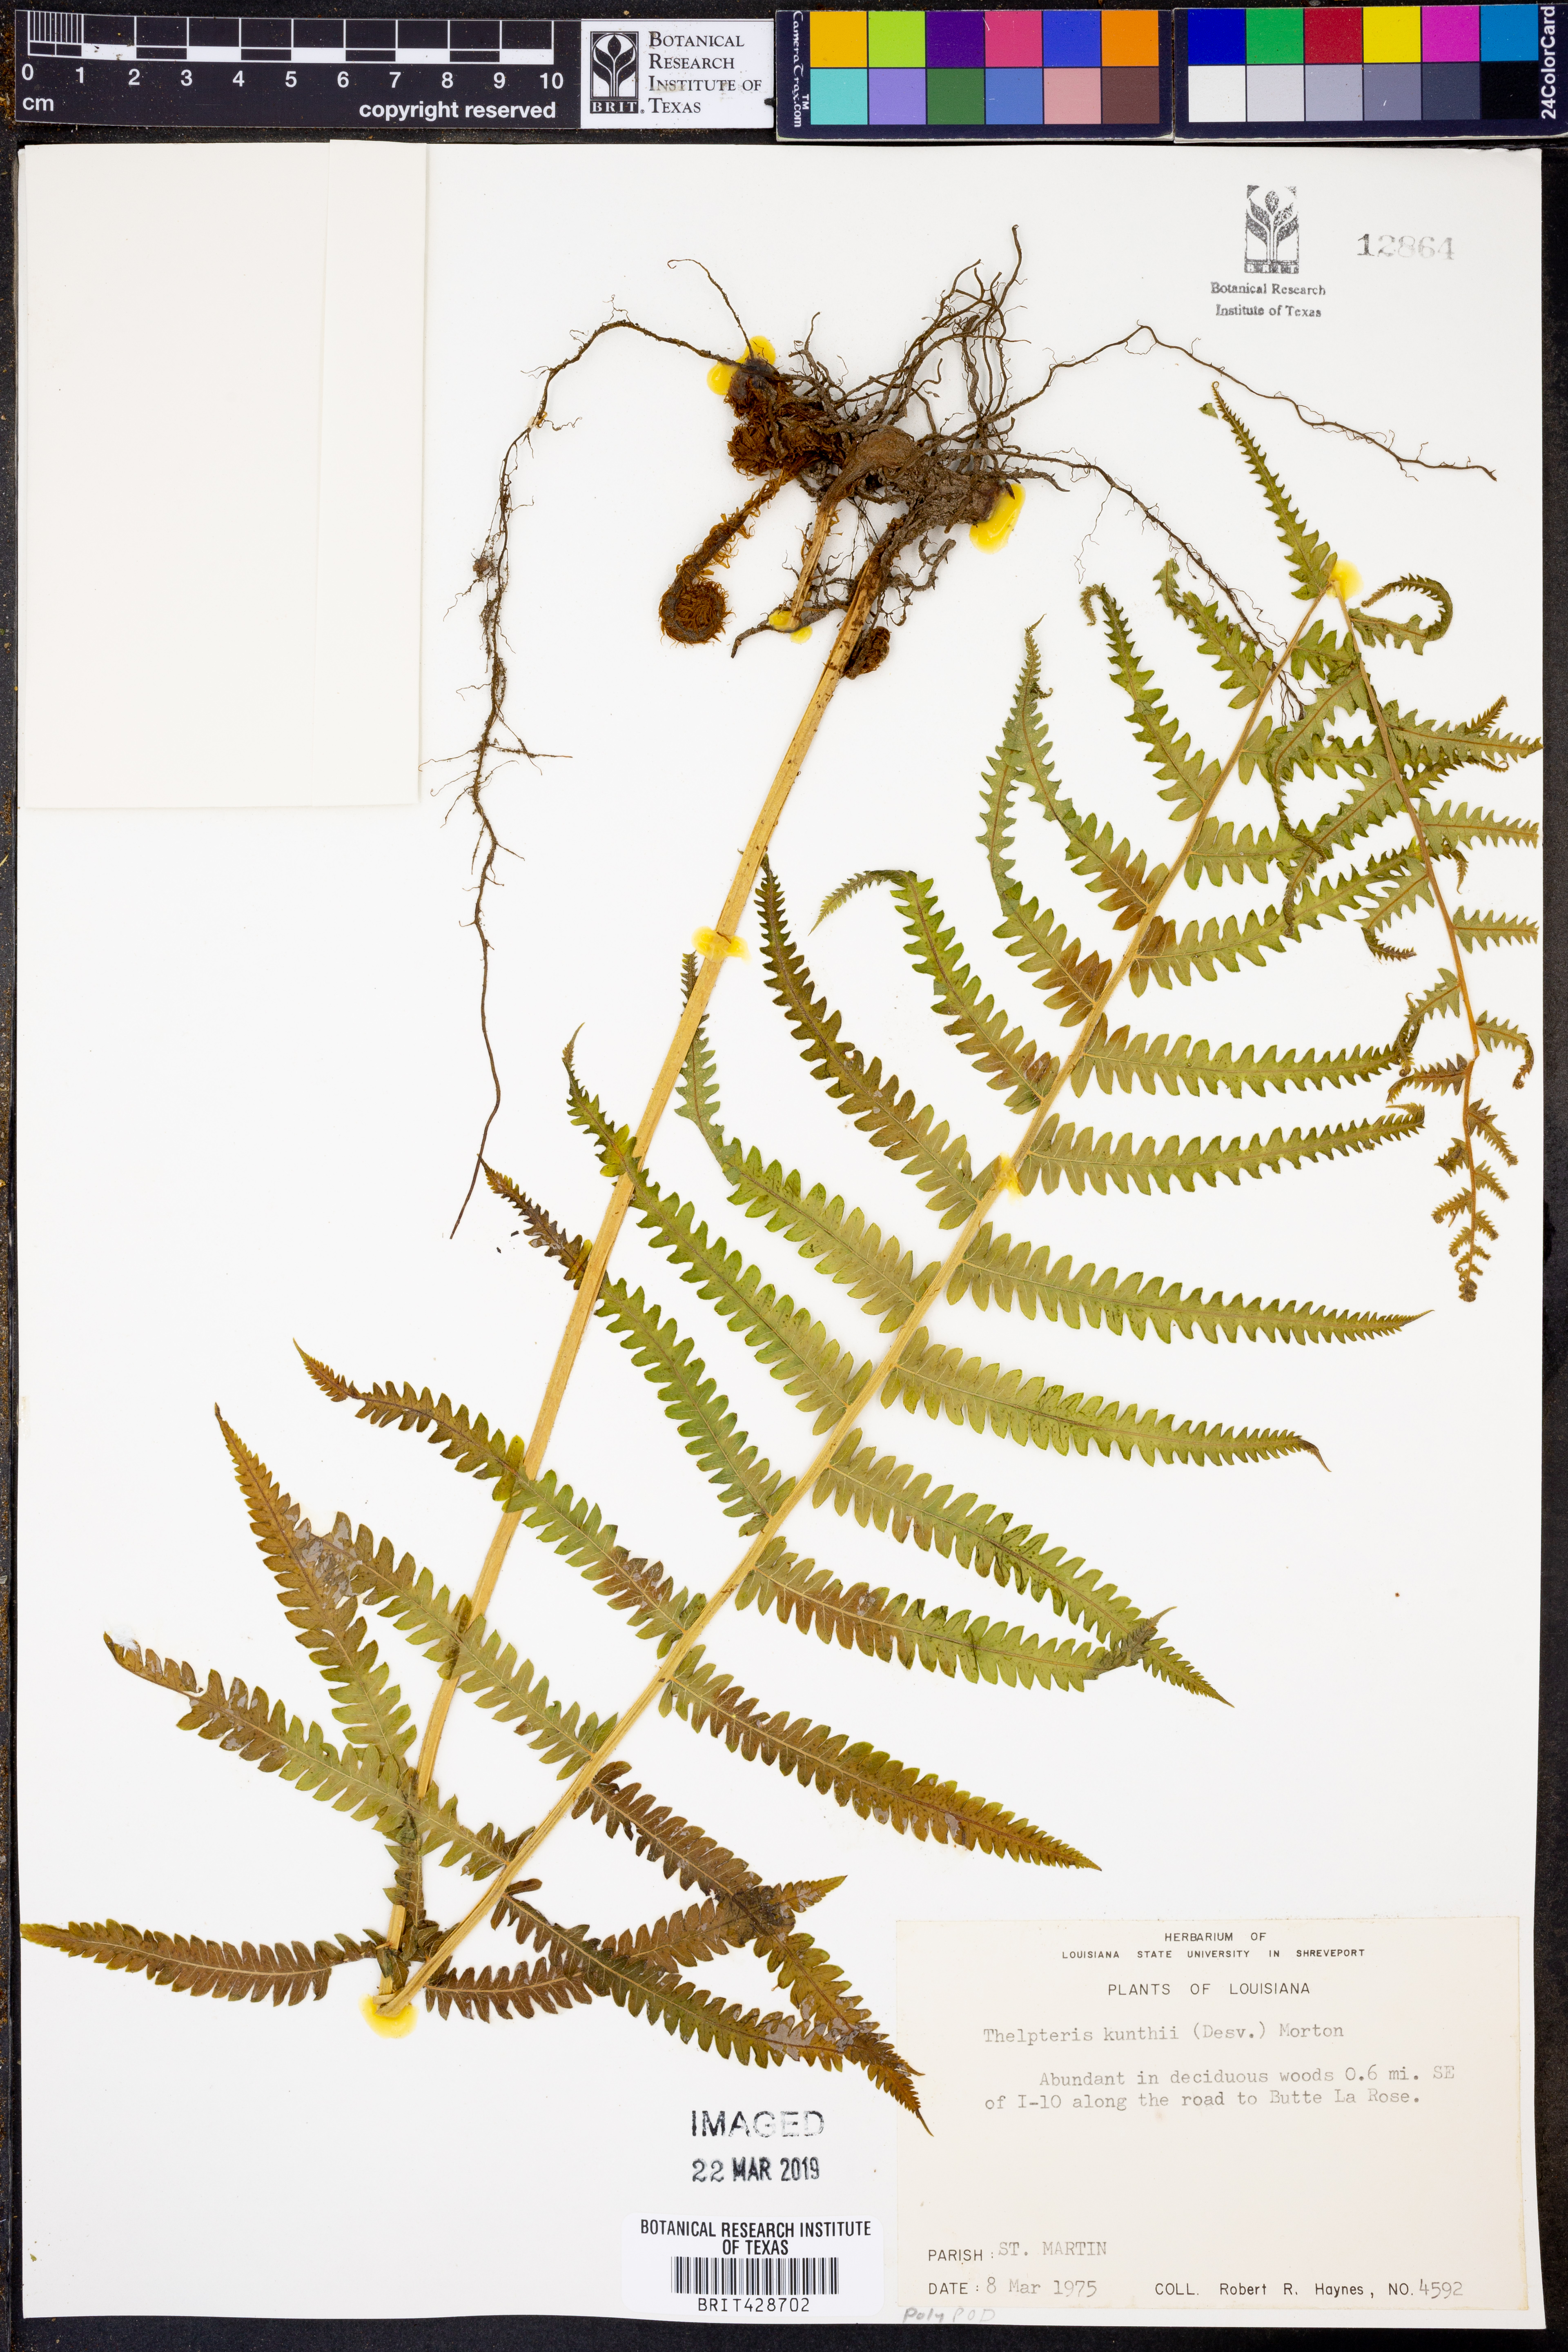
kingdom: Plantae
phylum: Tracheophyta
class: Polypodiopsida
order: Polypodiales
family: Thelypteridaceae
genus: Pelazoneuron
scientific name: Pelazoneuron kunthii
